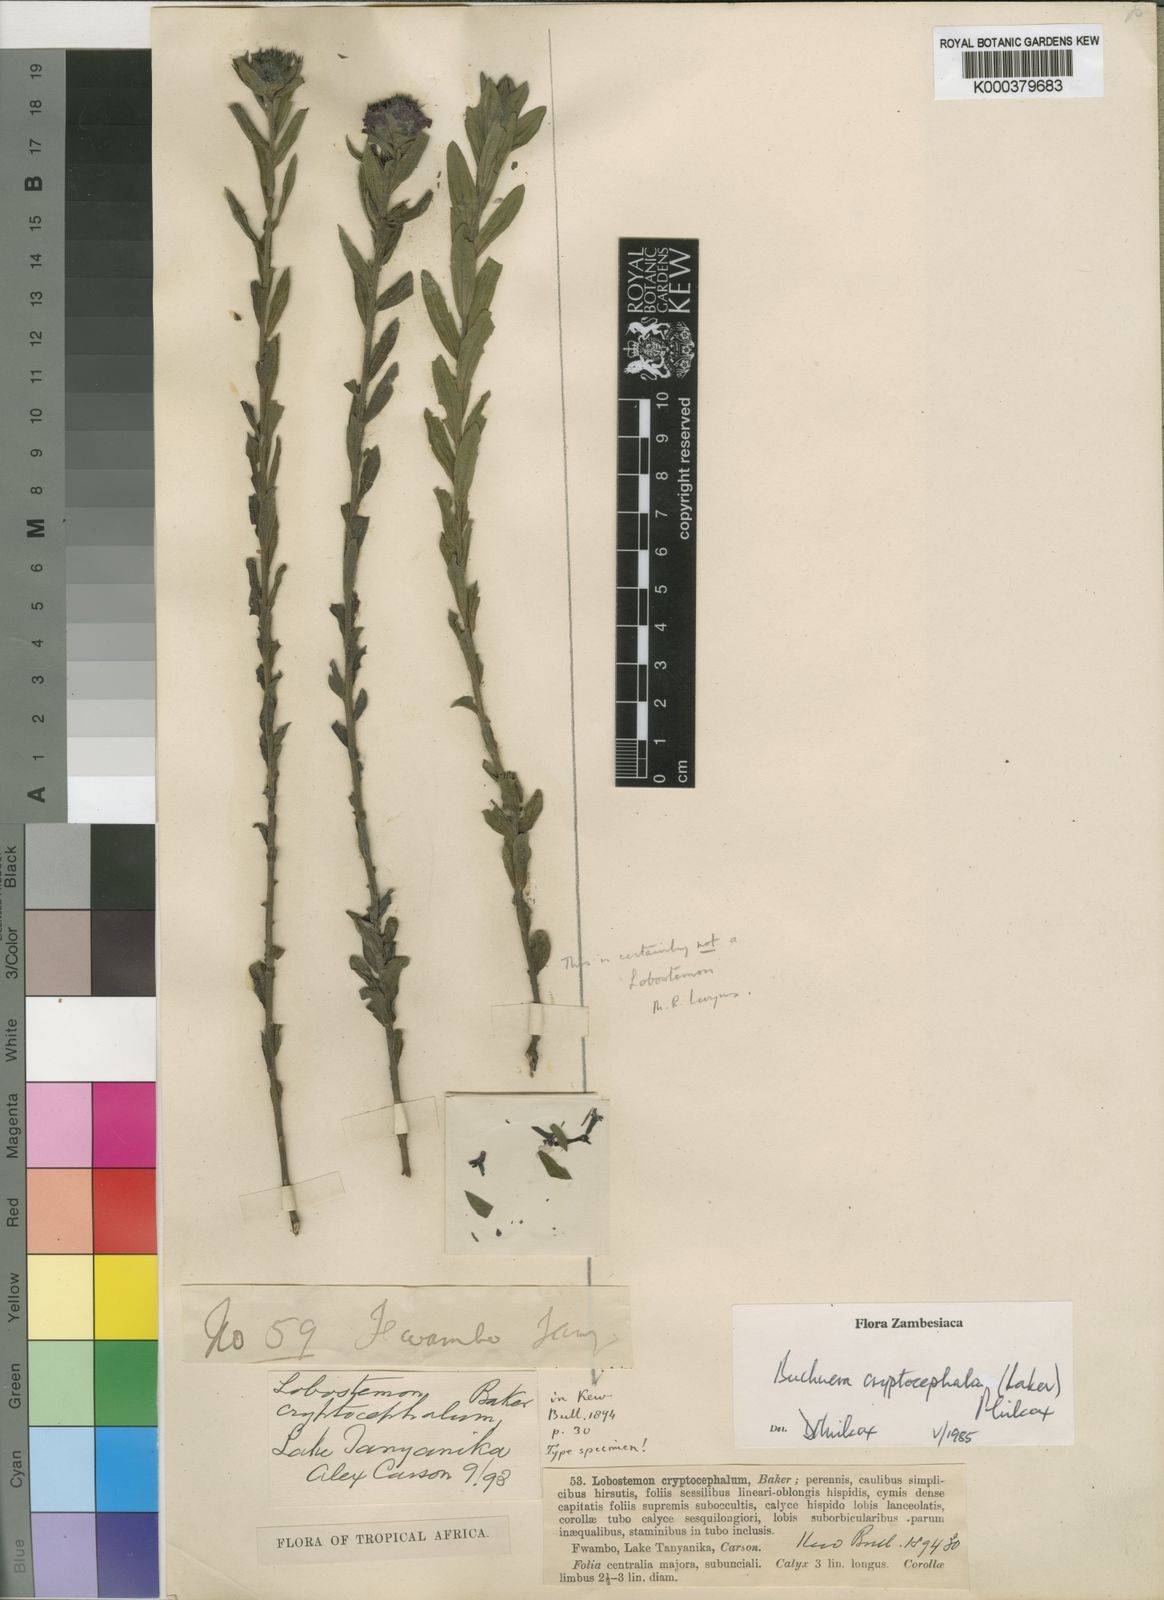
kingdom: Plantae
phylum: Tracheophyta
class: Magnoliopsida
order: Lamiales
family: Orobanchaceae
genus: Buchnera
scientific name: Buchnera cryptocephala
